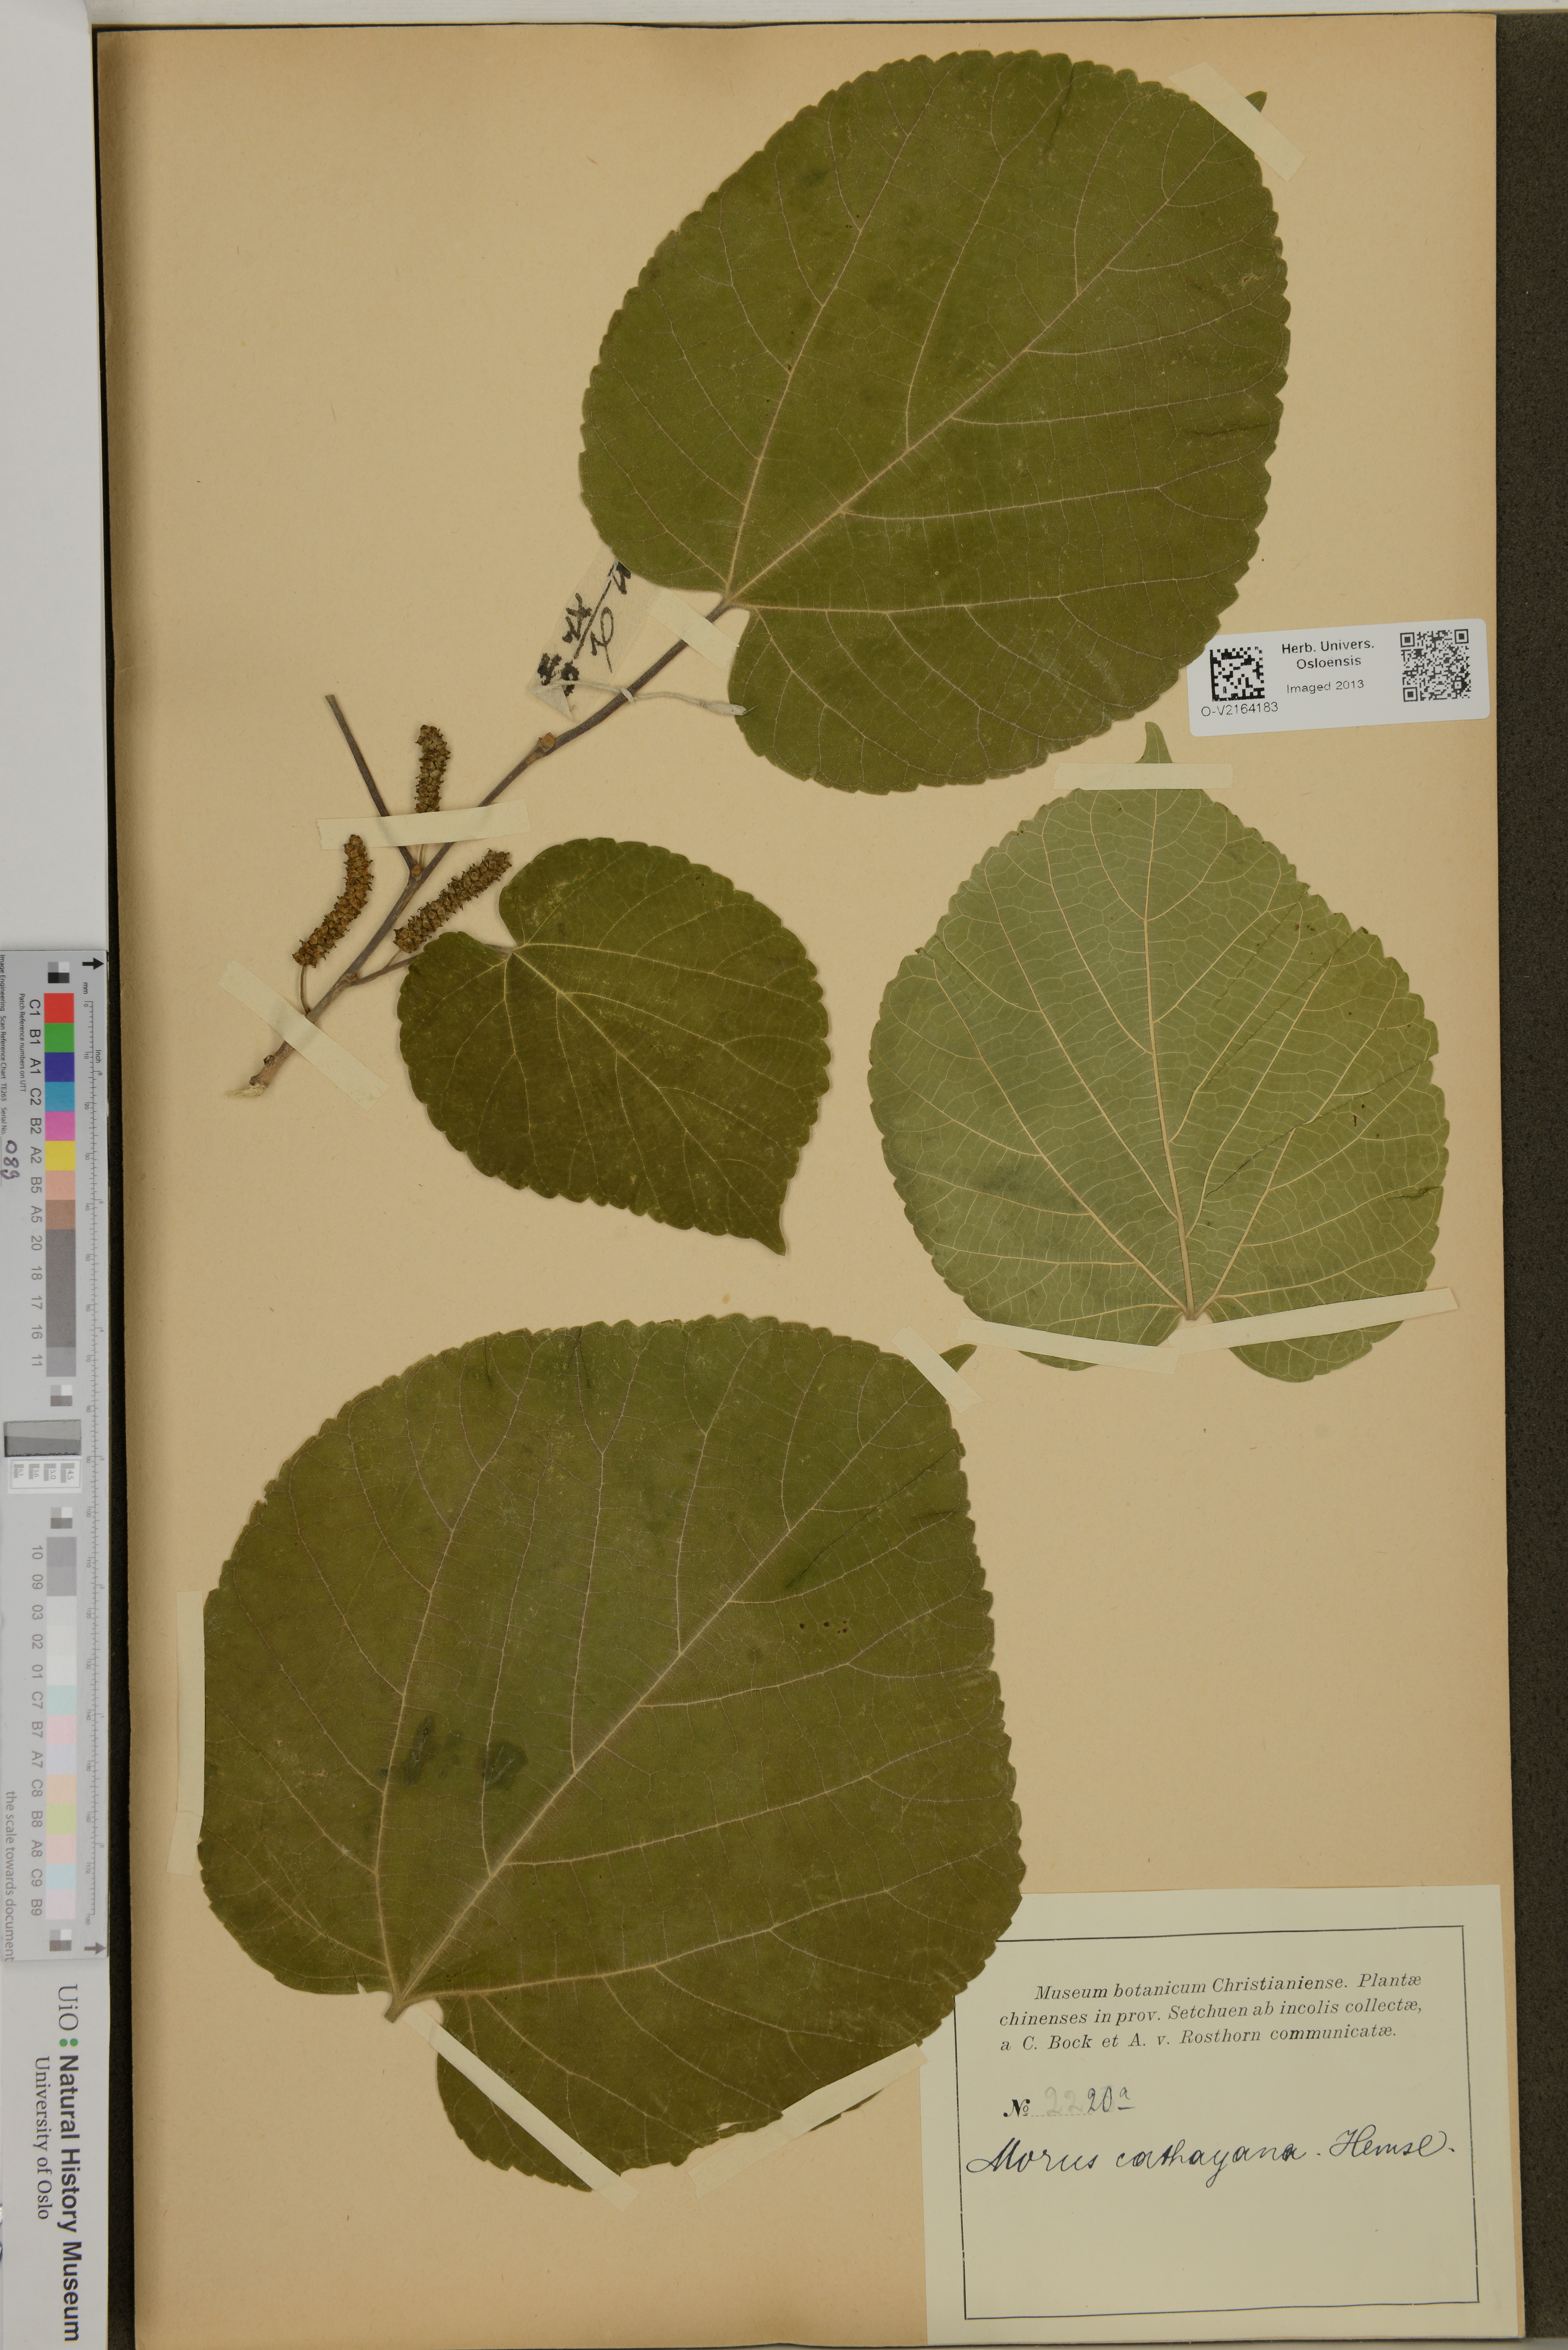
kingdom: Plantae
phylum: Tracheophyta
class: Magnoliopsida
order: Rosales
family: Moraceae
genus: Morus
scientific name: Morus cathayana
